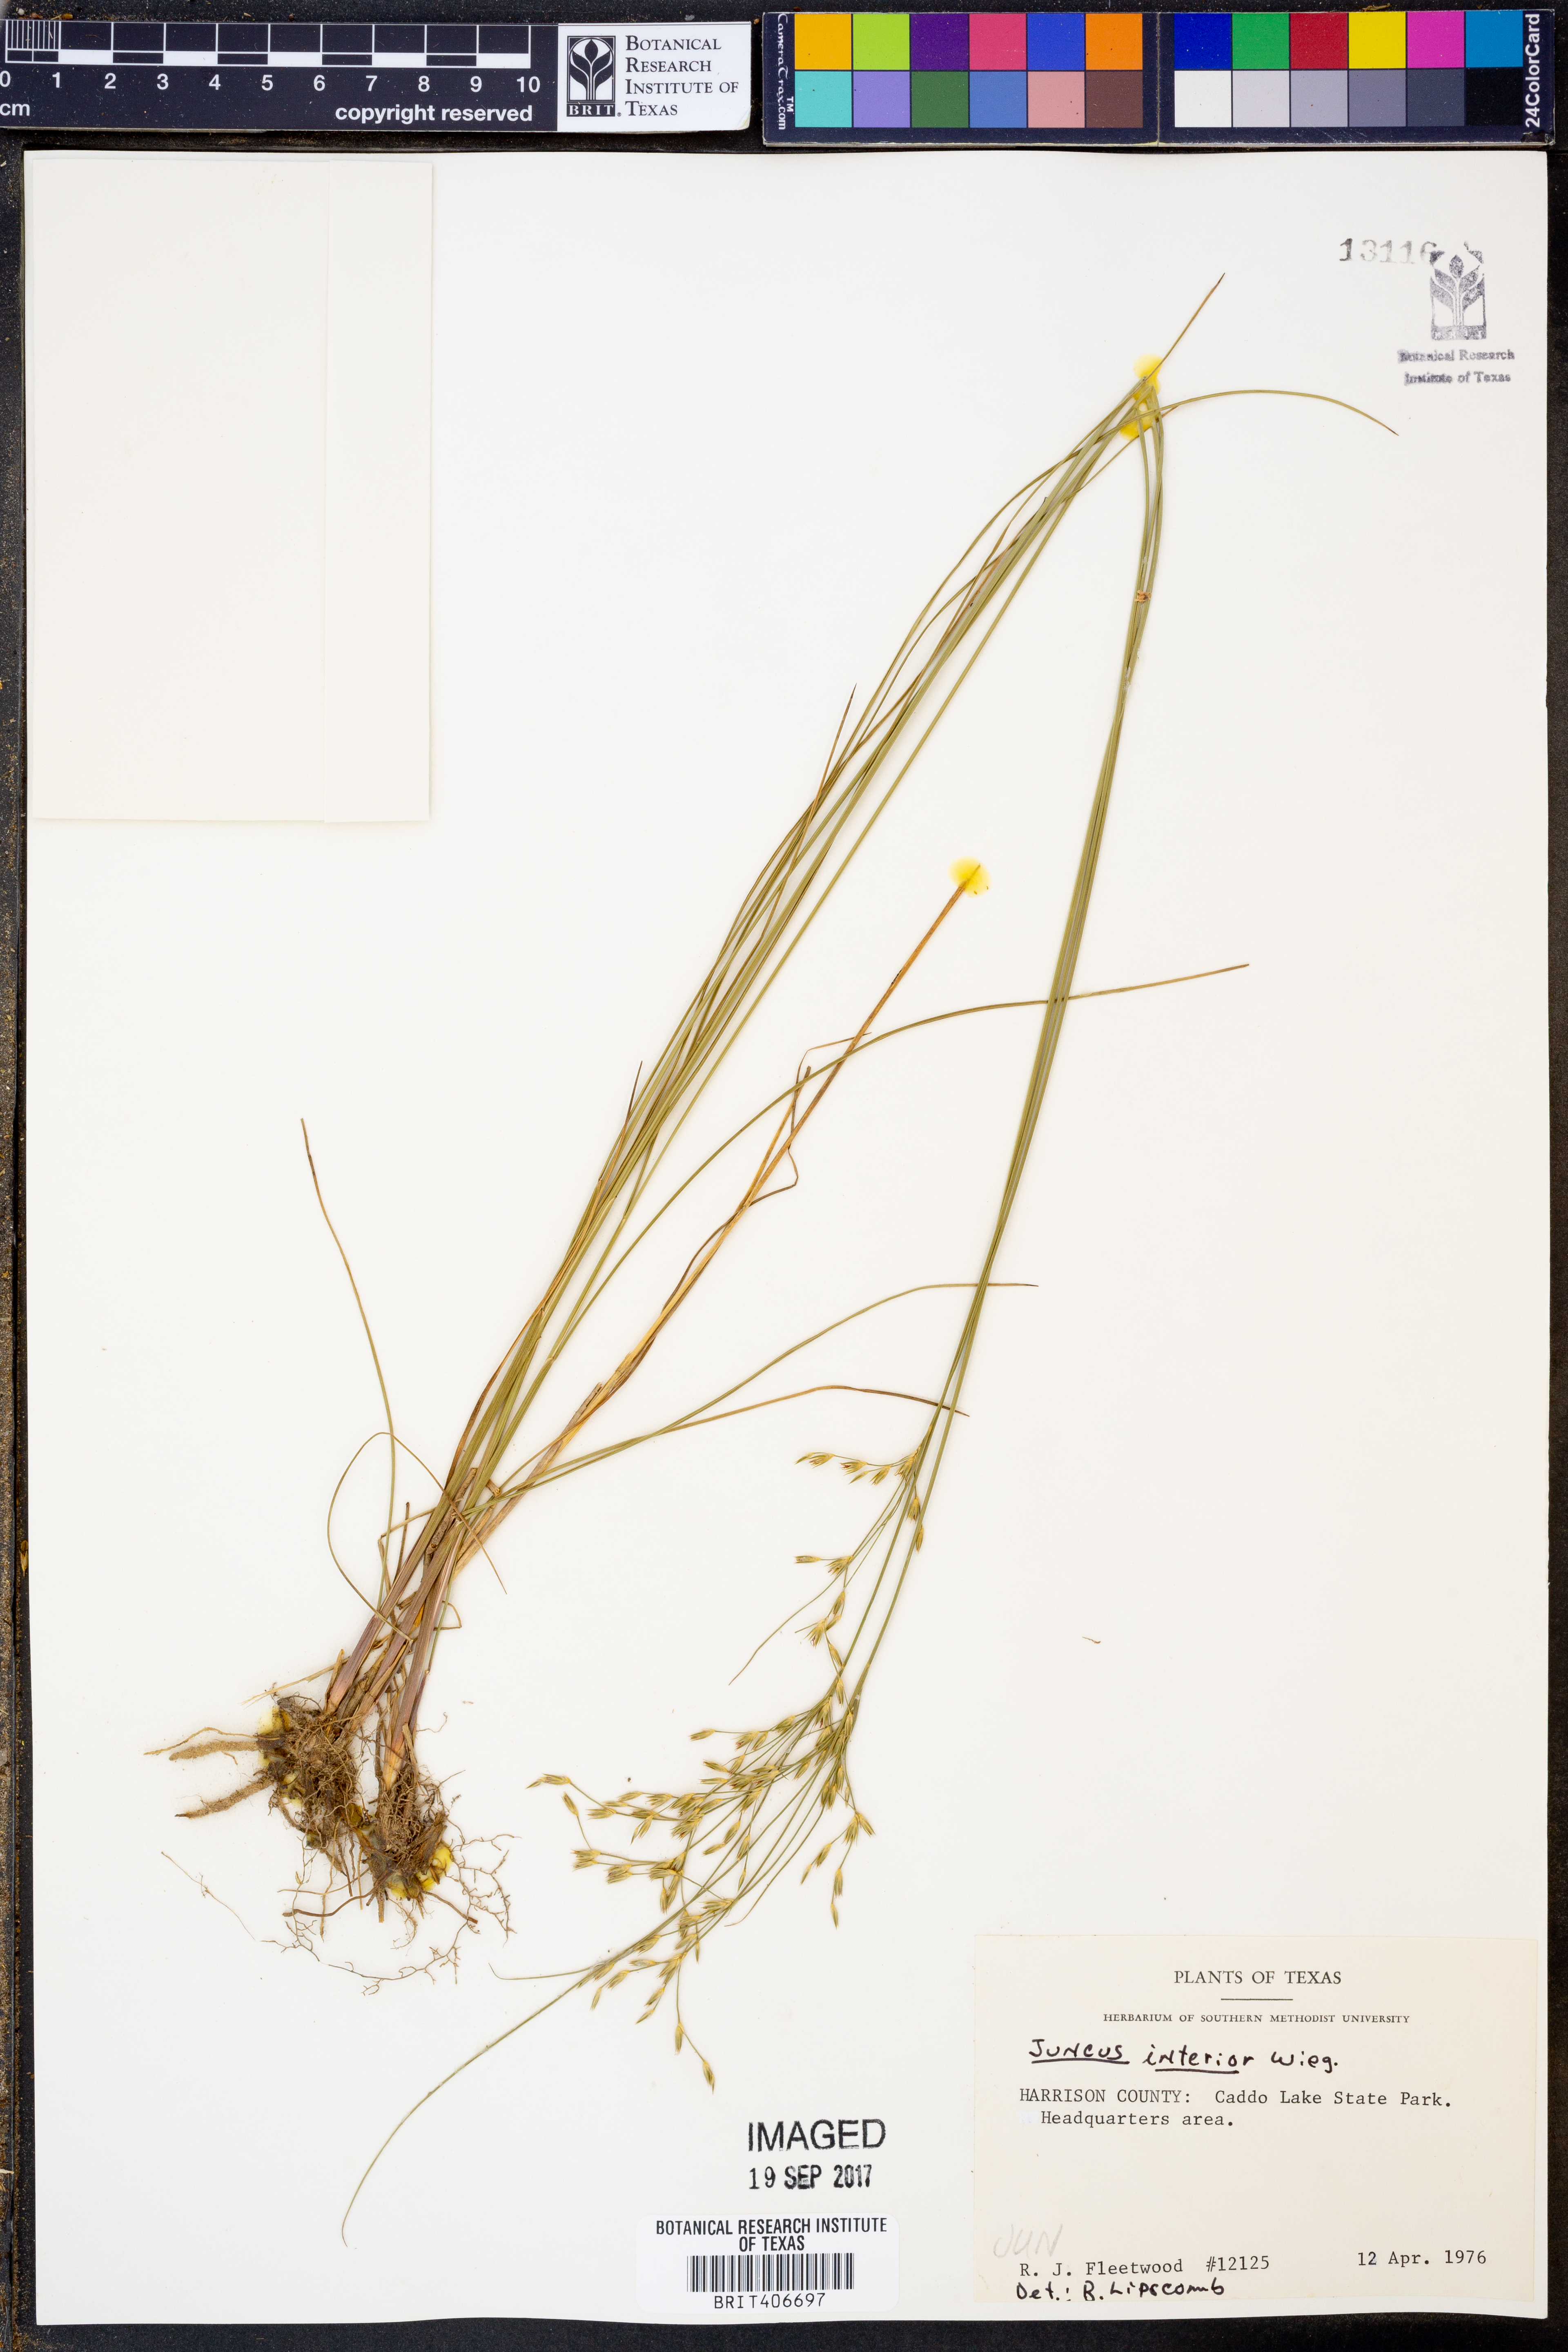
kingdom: Plantae
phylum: Tracheophyta
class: Liliopsida
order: Poales
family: Juncaceae
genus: Juncus
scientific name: Juncus interior
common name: Interior rush
